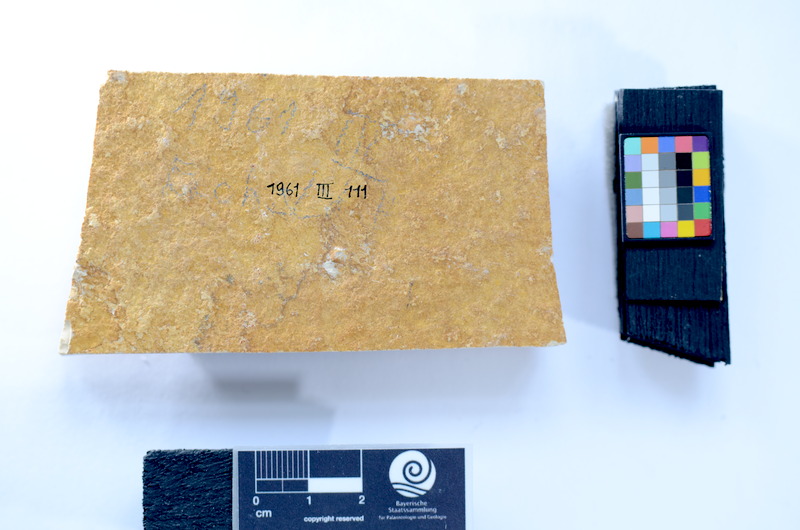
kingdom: Animalia
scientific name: Animalia
